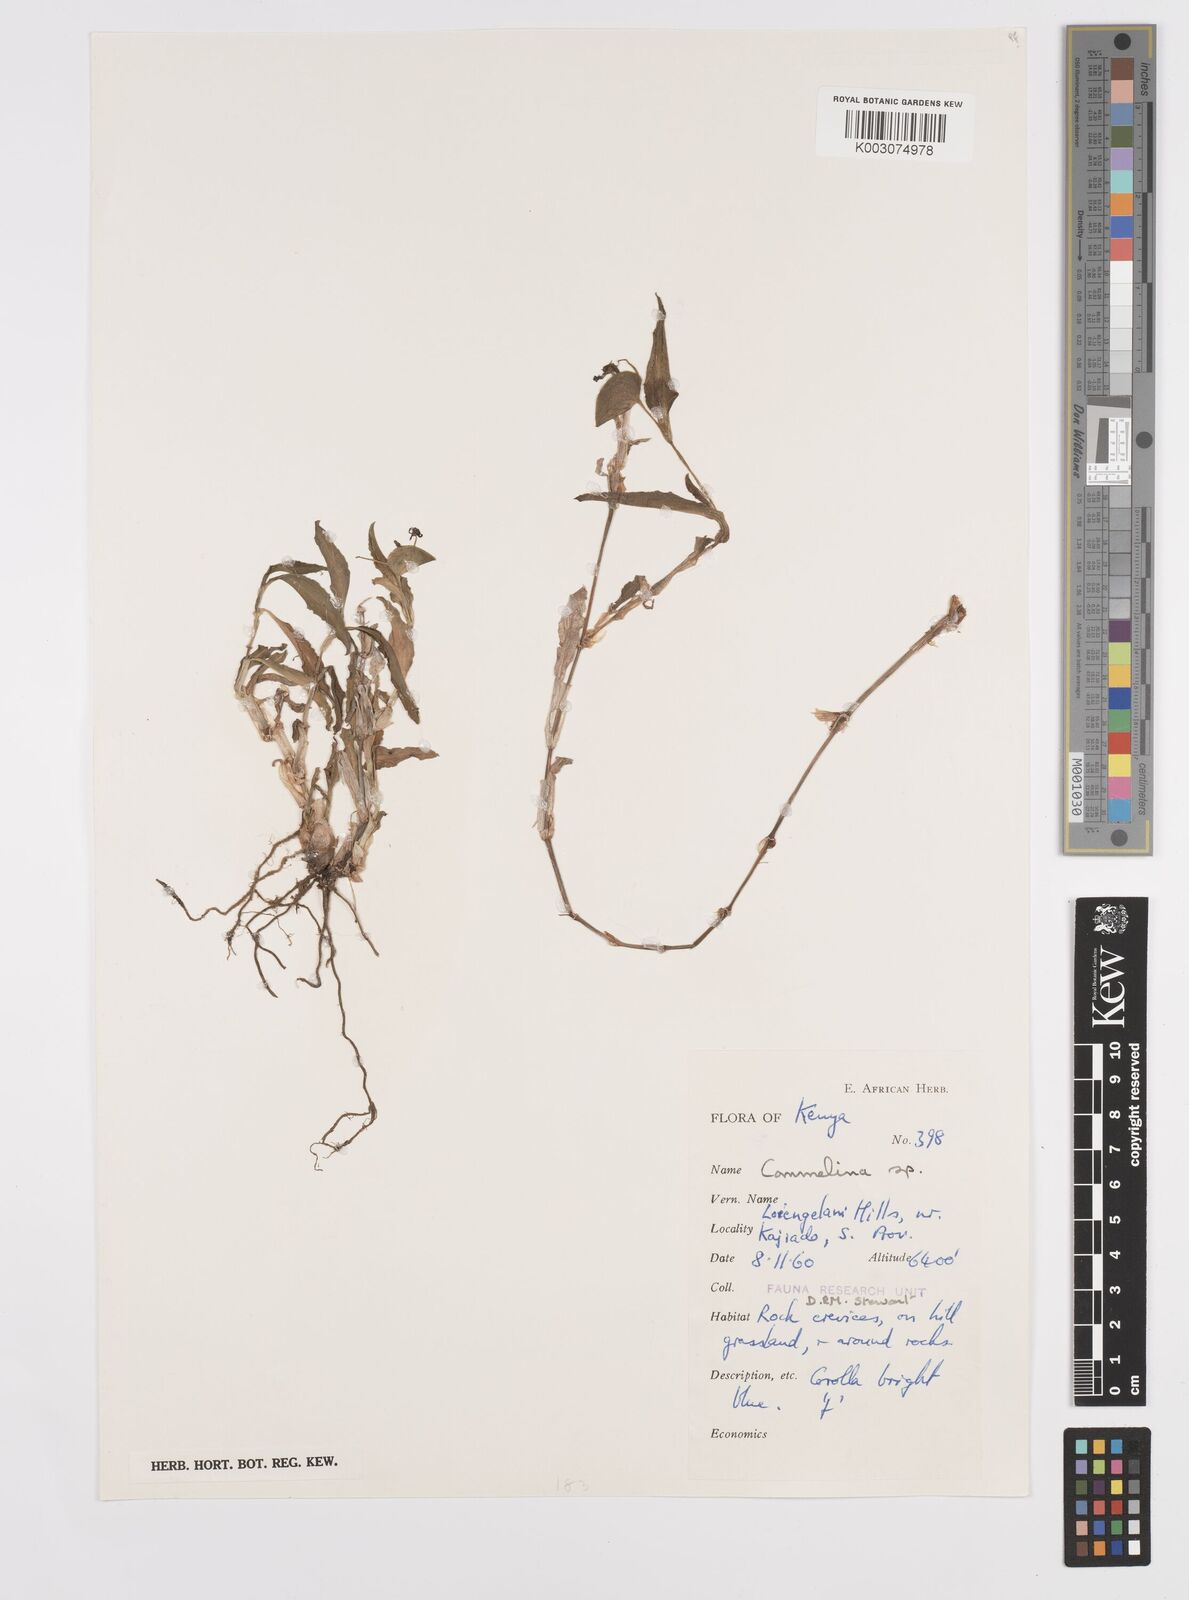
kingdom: Plantae
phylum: Tracheophyta
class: Liliopsida
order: Commelinales
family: Commelinaceae
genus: Commelina
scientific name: Commelina
